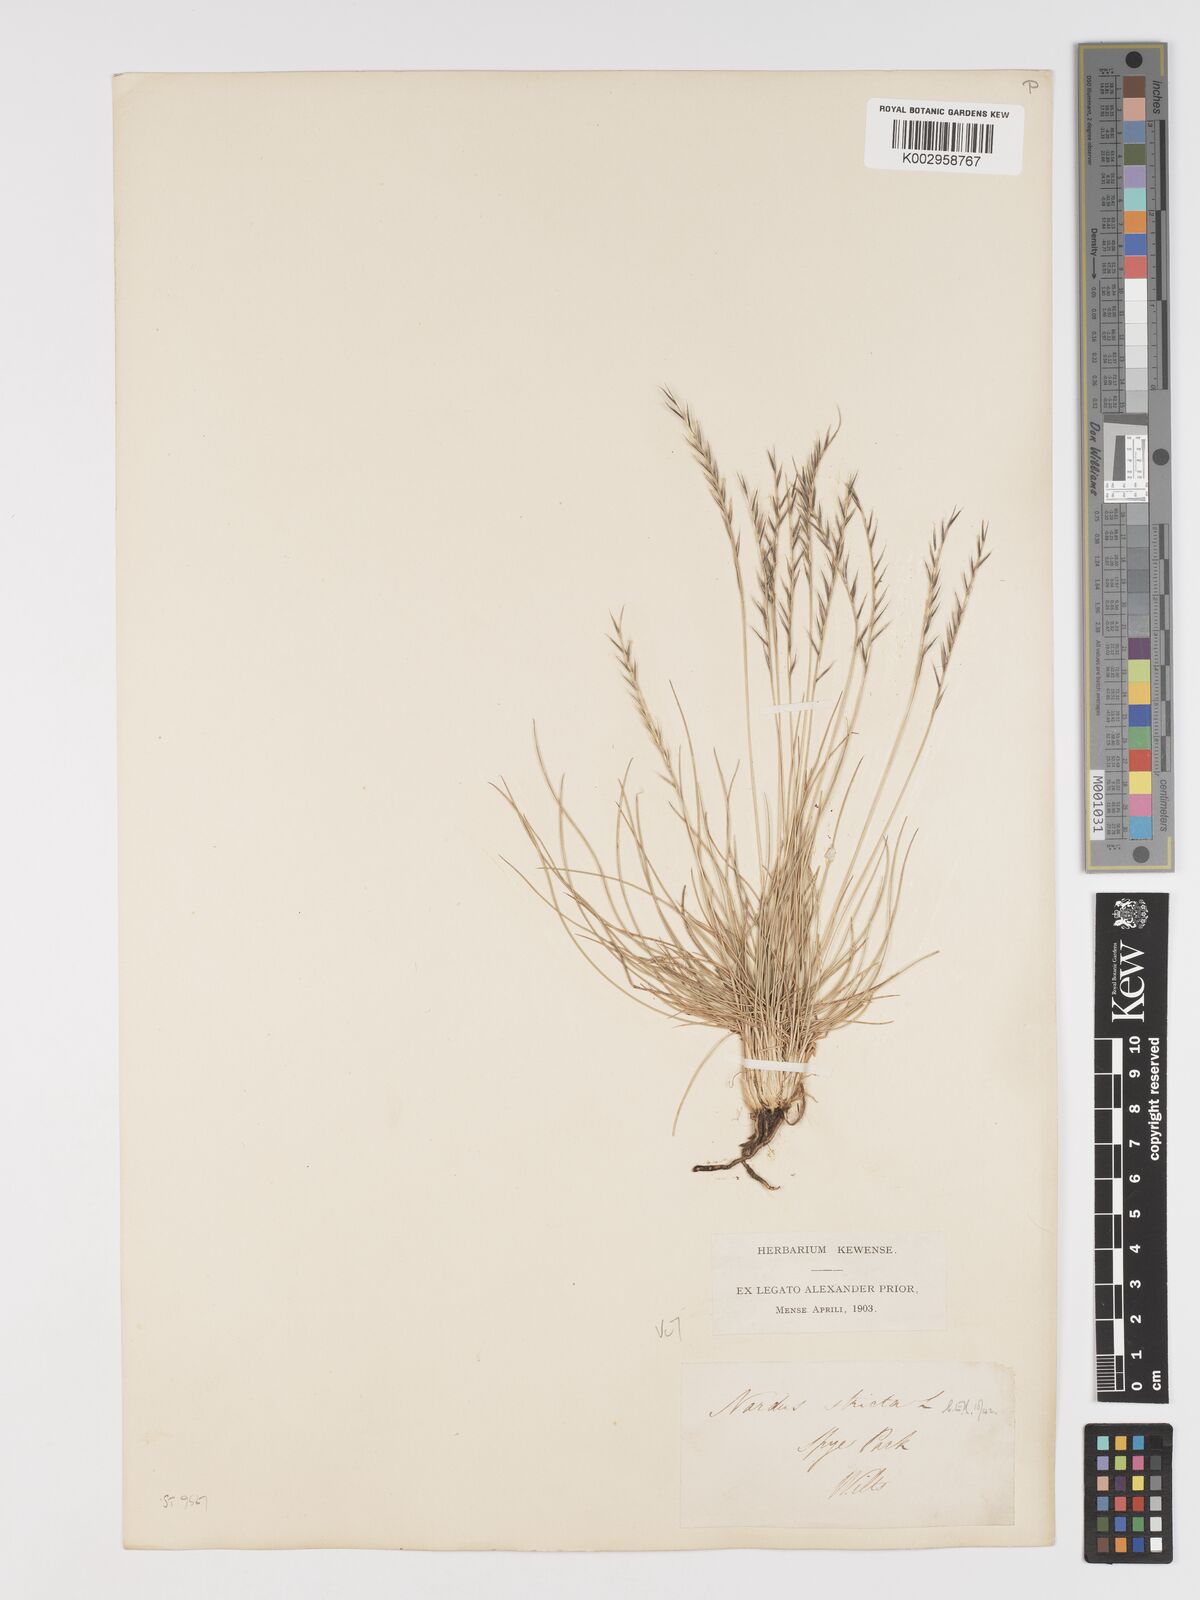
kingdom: Plantae
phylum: Tracheophyta
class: Liliopsida
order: Poales
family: Poaceae
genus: Nardus
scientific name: Nardus stricta
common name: Mat-grass
